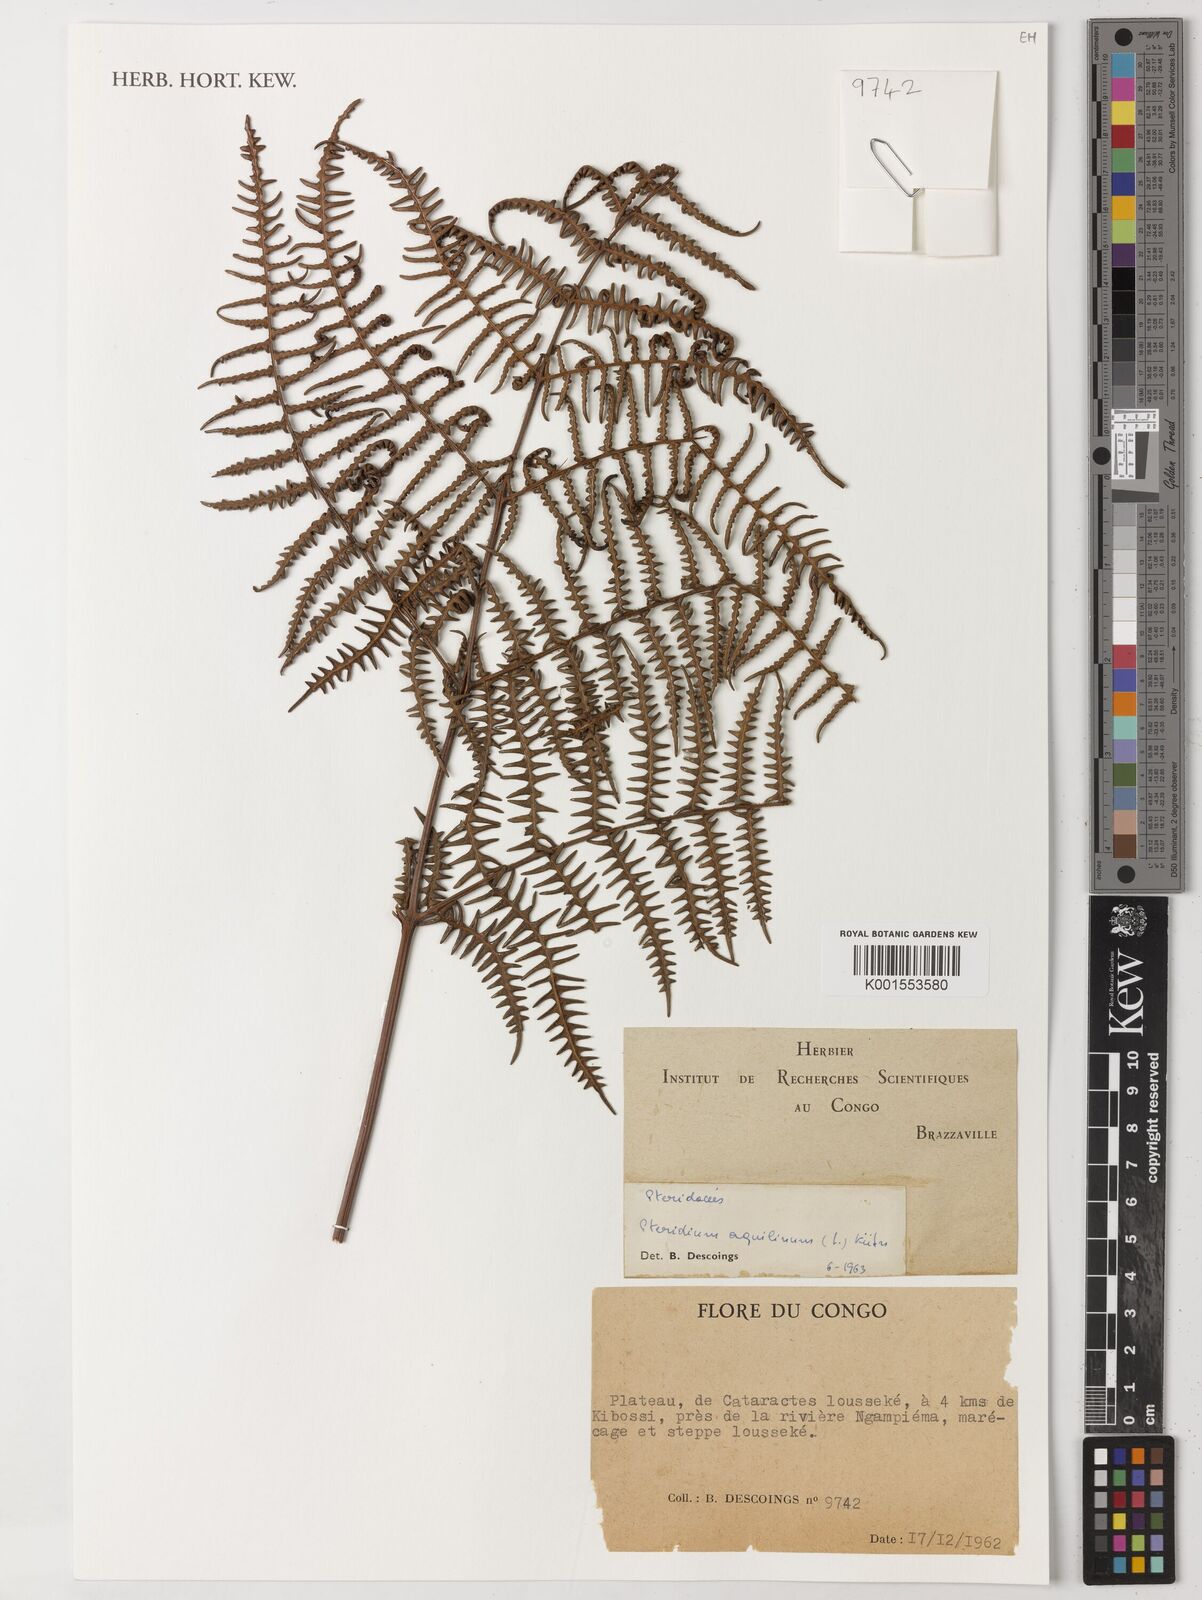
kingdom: Plantae
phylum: Tracheophyta
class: Polypodiopsida
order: Polypodiales
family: Dennstaedtiaceae
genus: Pteridium
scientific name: Pteridium aquilinum
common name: Bracken
